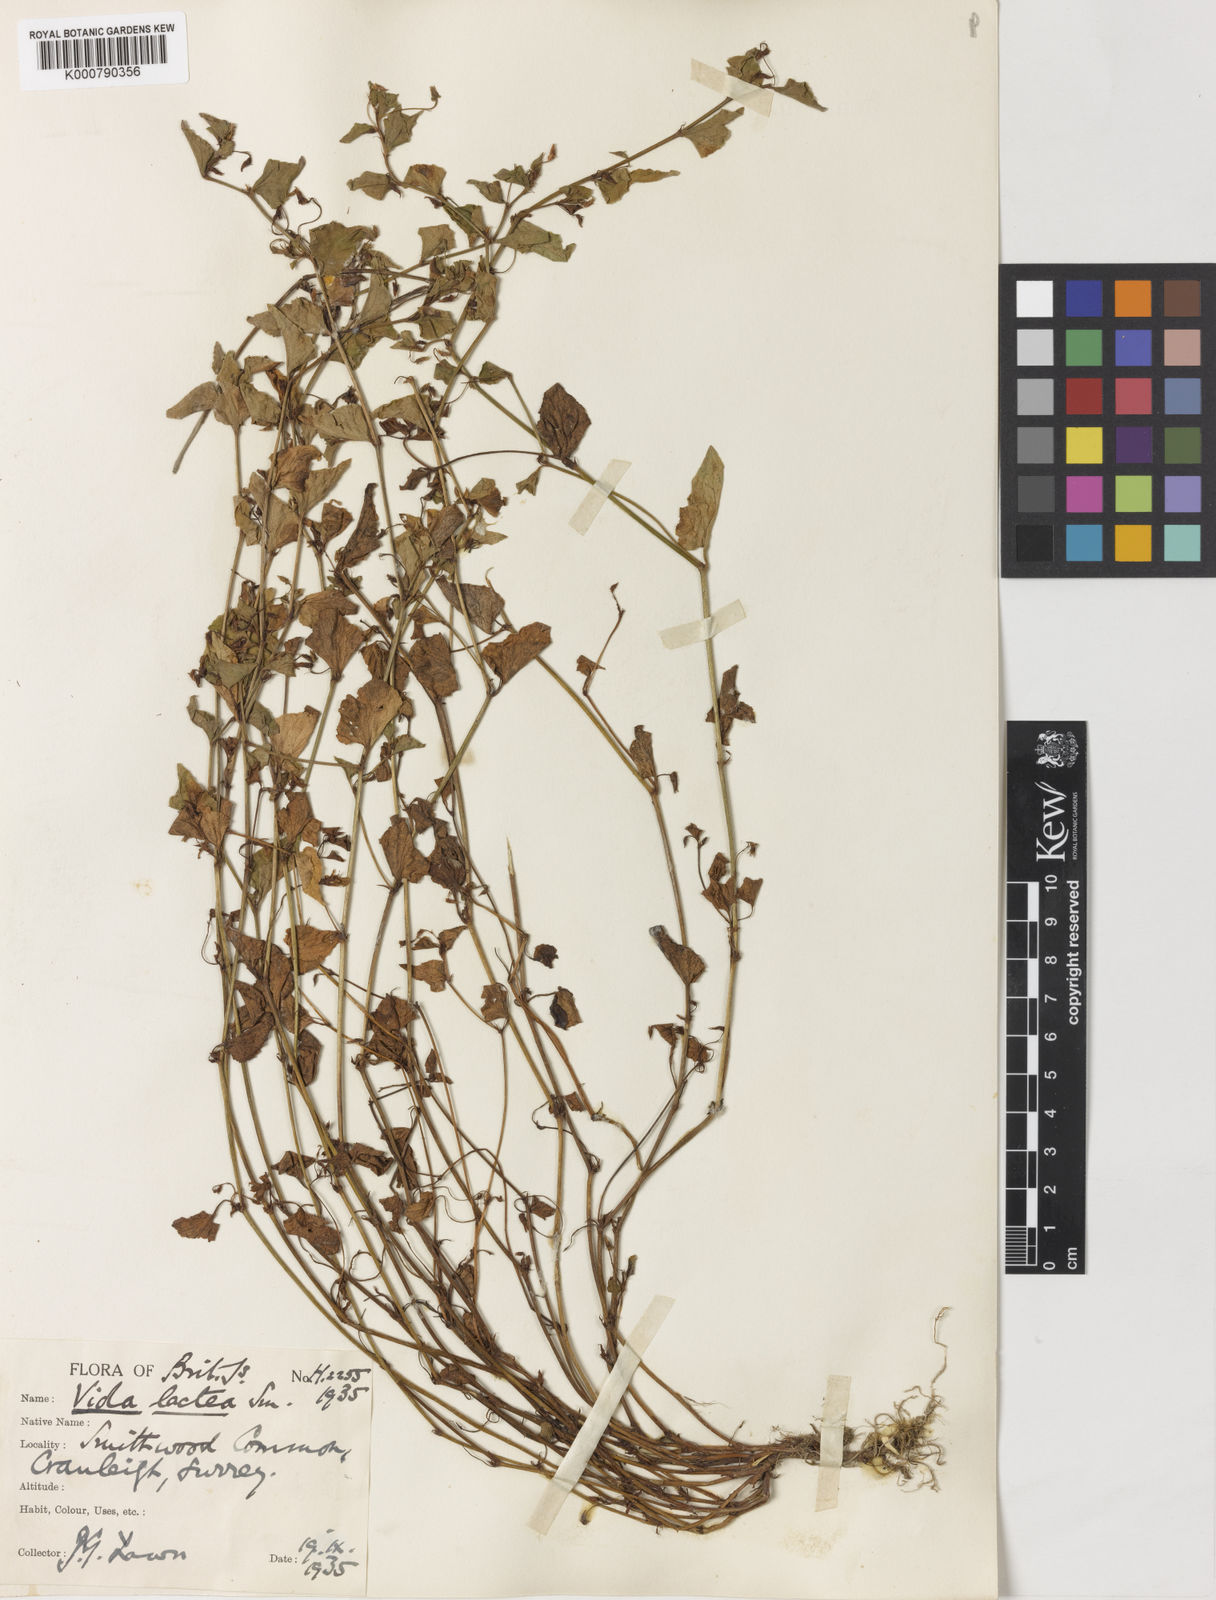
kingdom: Plantae
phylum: Tracheophyta
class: Magnoliopsida
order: Malpighiales
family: Violaceae
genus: Viola
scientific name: Viola lactea
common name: Pale dog-violet
